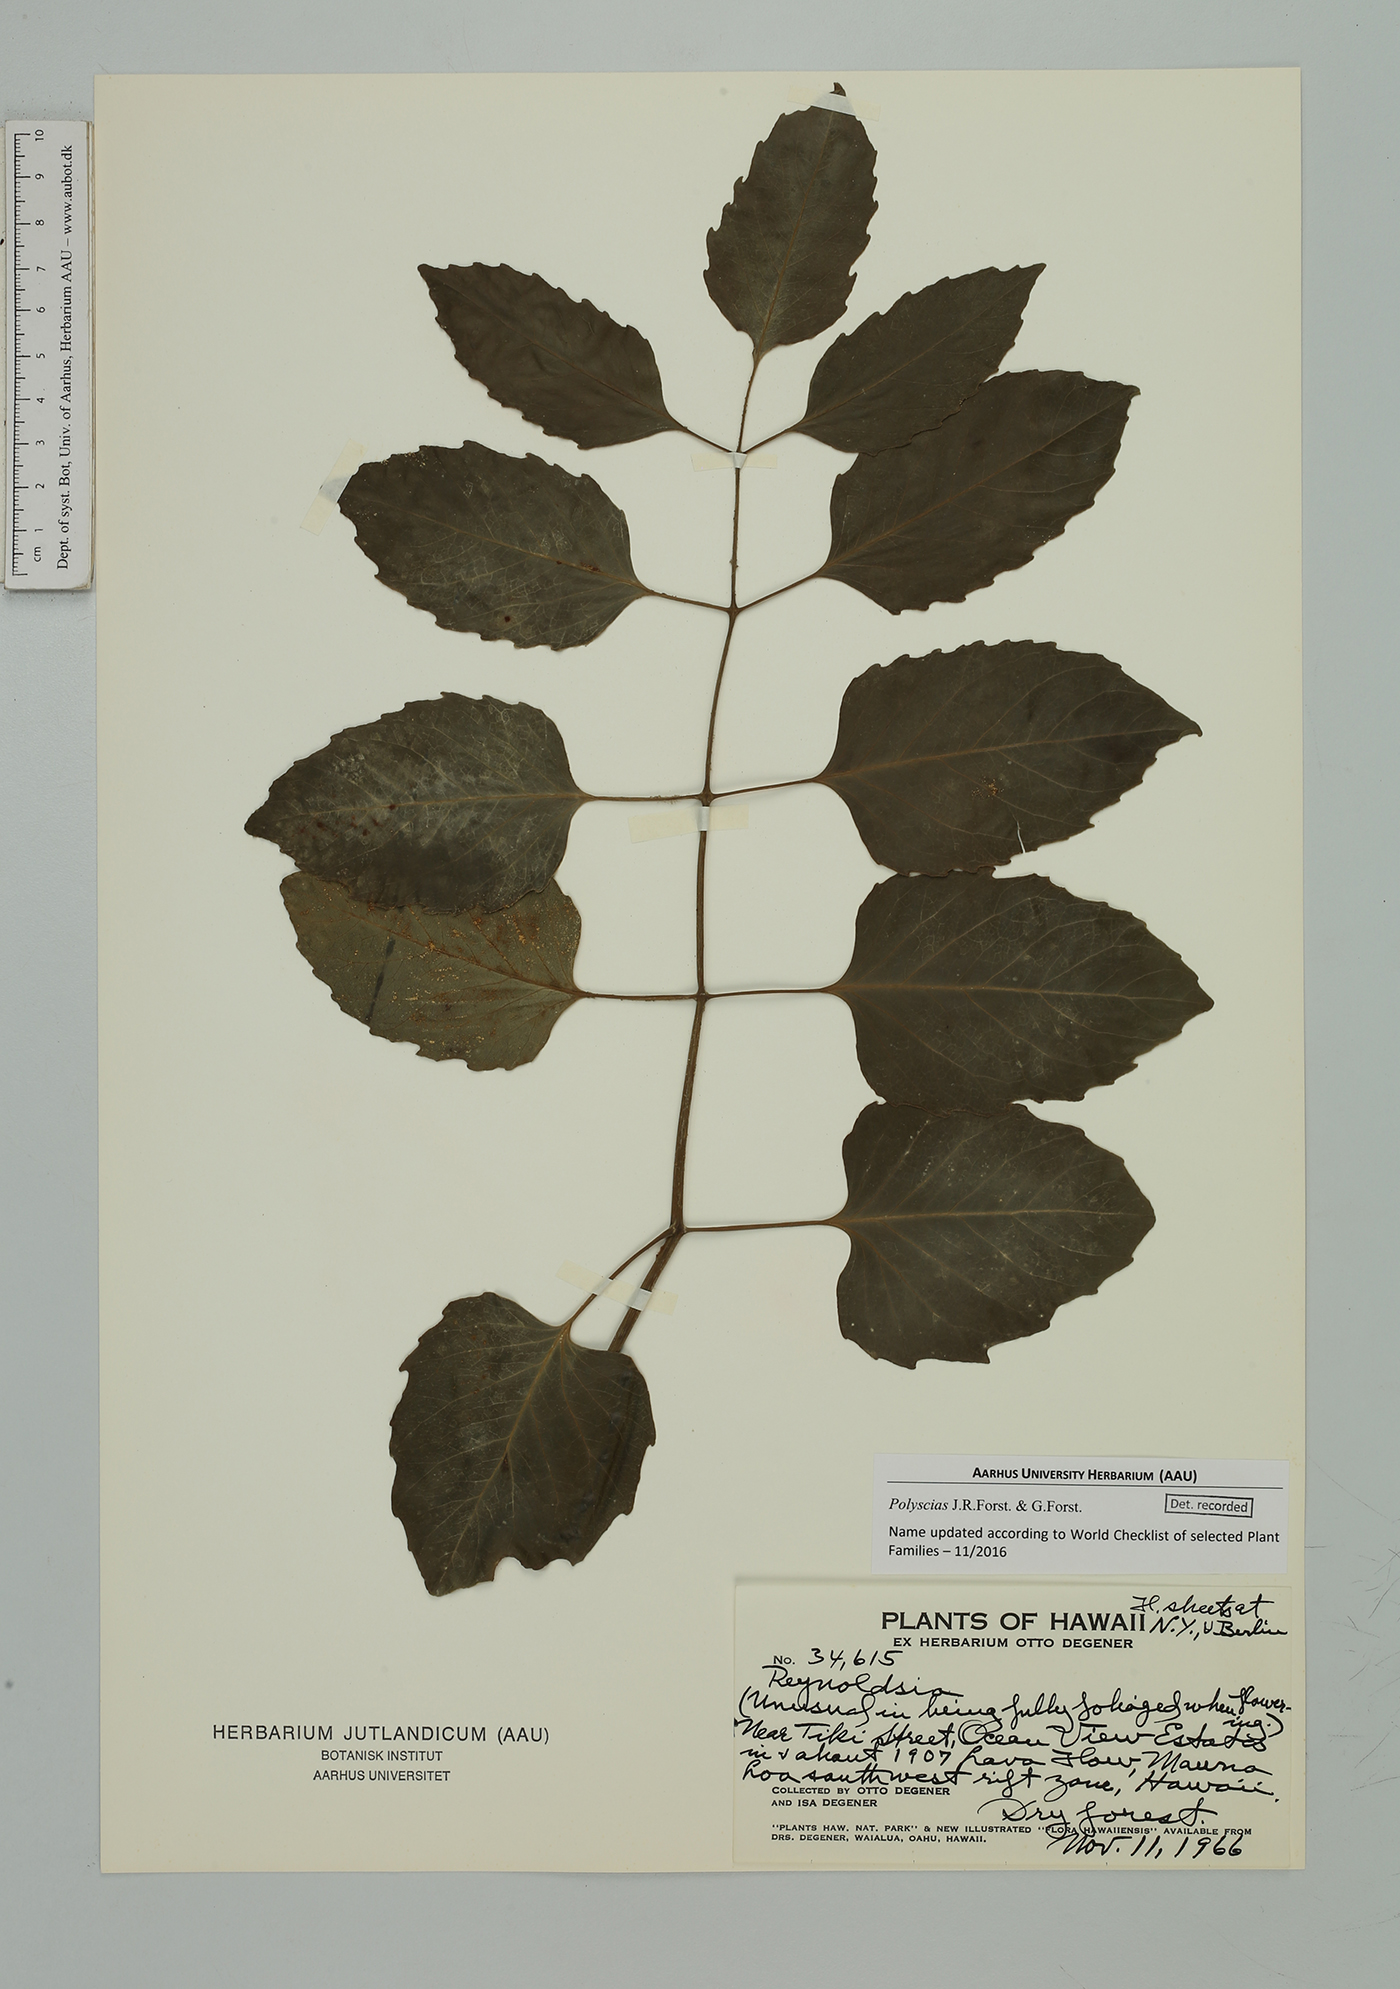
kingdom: Plantae
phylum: Tracheophyta
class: Magnoliopsida
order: Apiales
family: Araliaceae
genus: Polyscias
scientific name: Polyscias
